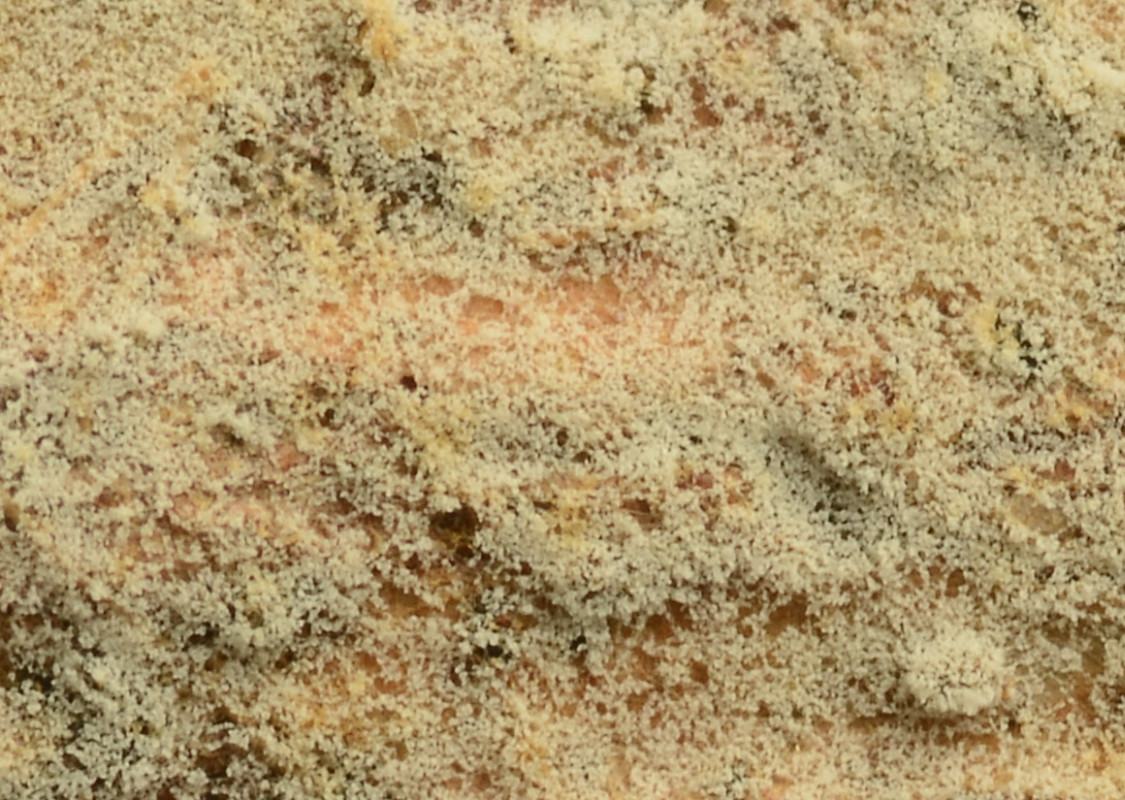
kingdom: Fungi
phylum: Basidiomycota
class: Agaricomycetes
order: Cantharellales
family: Botryobasidiaceae
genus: Botryobasidium
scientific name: Botryobasidium vagum
